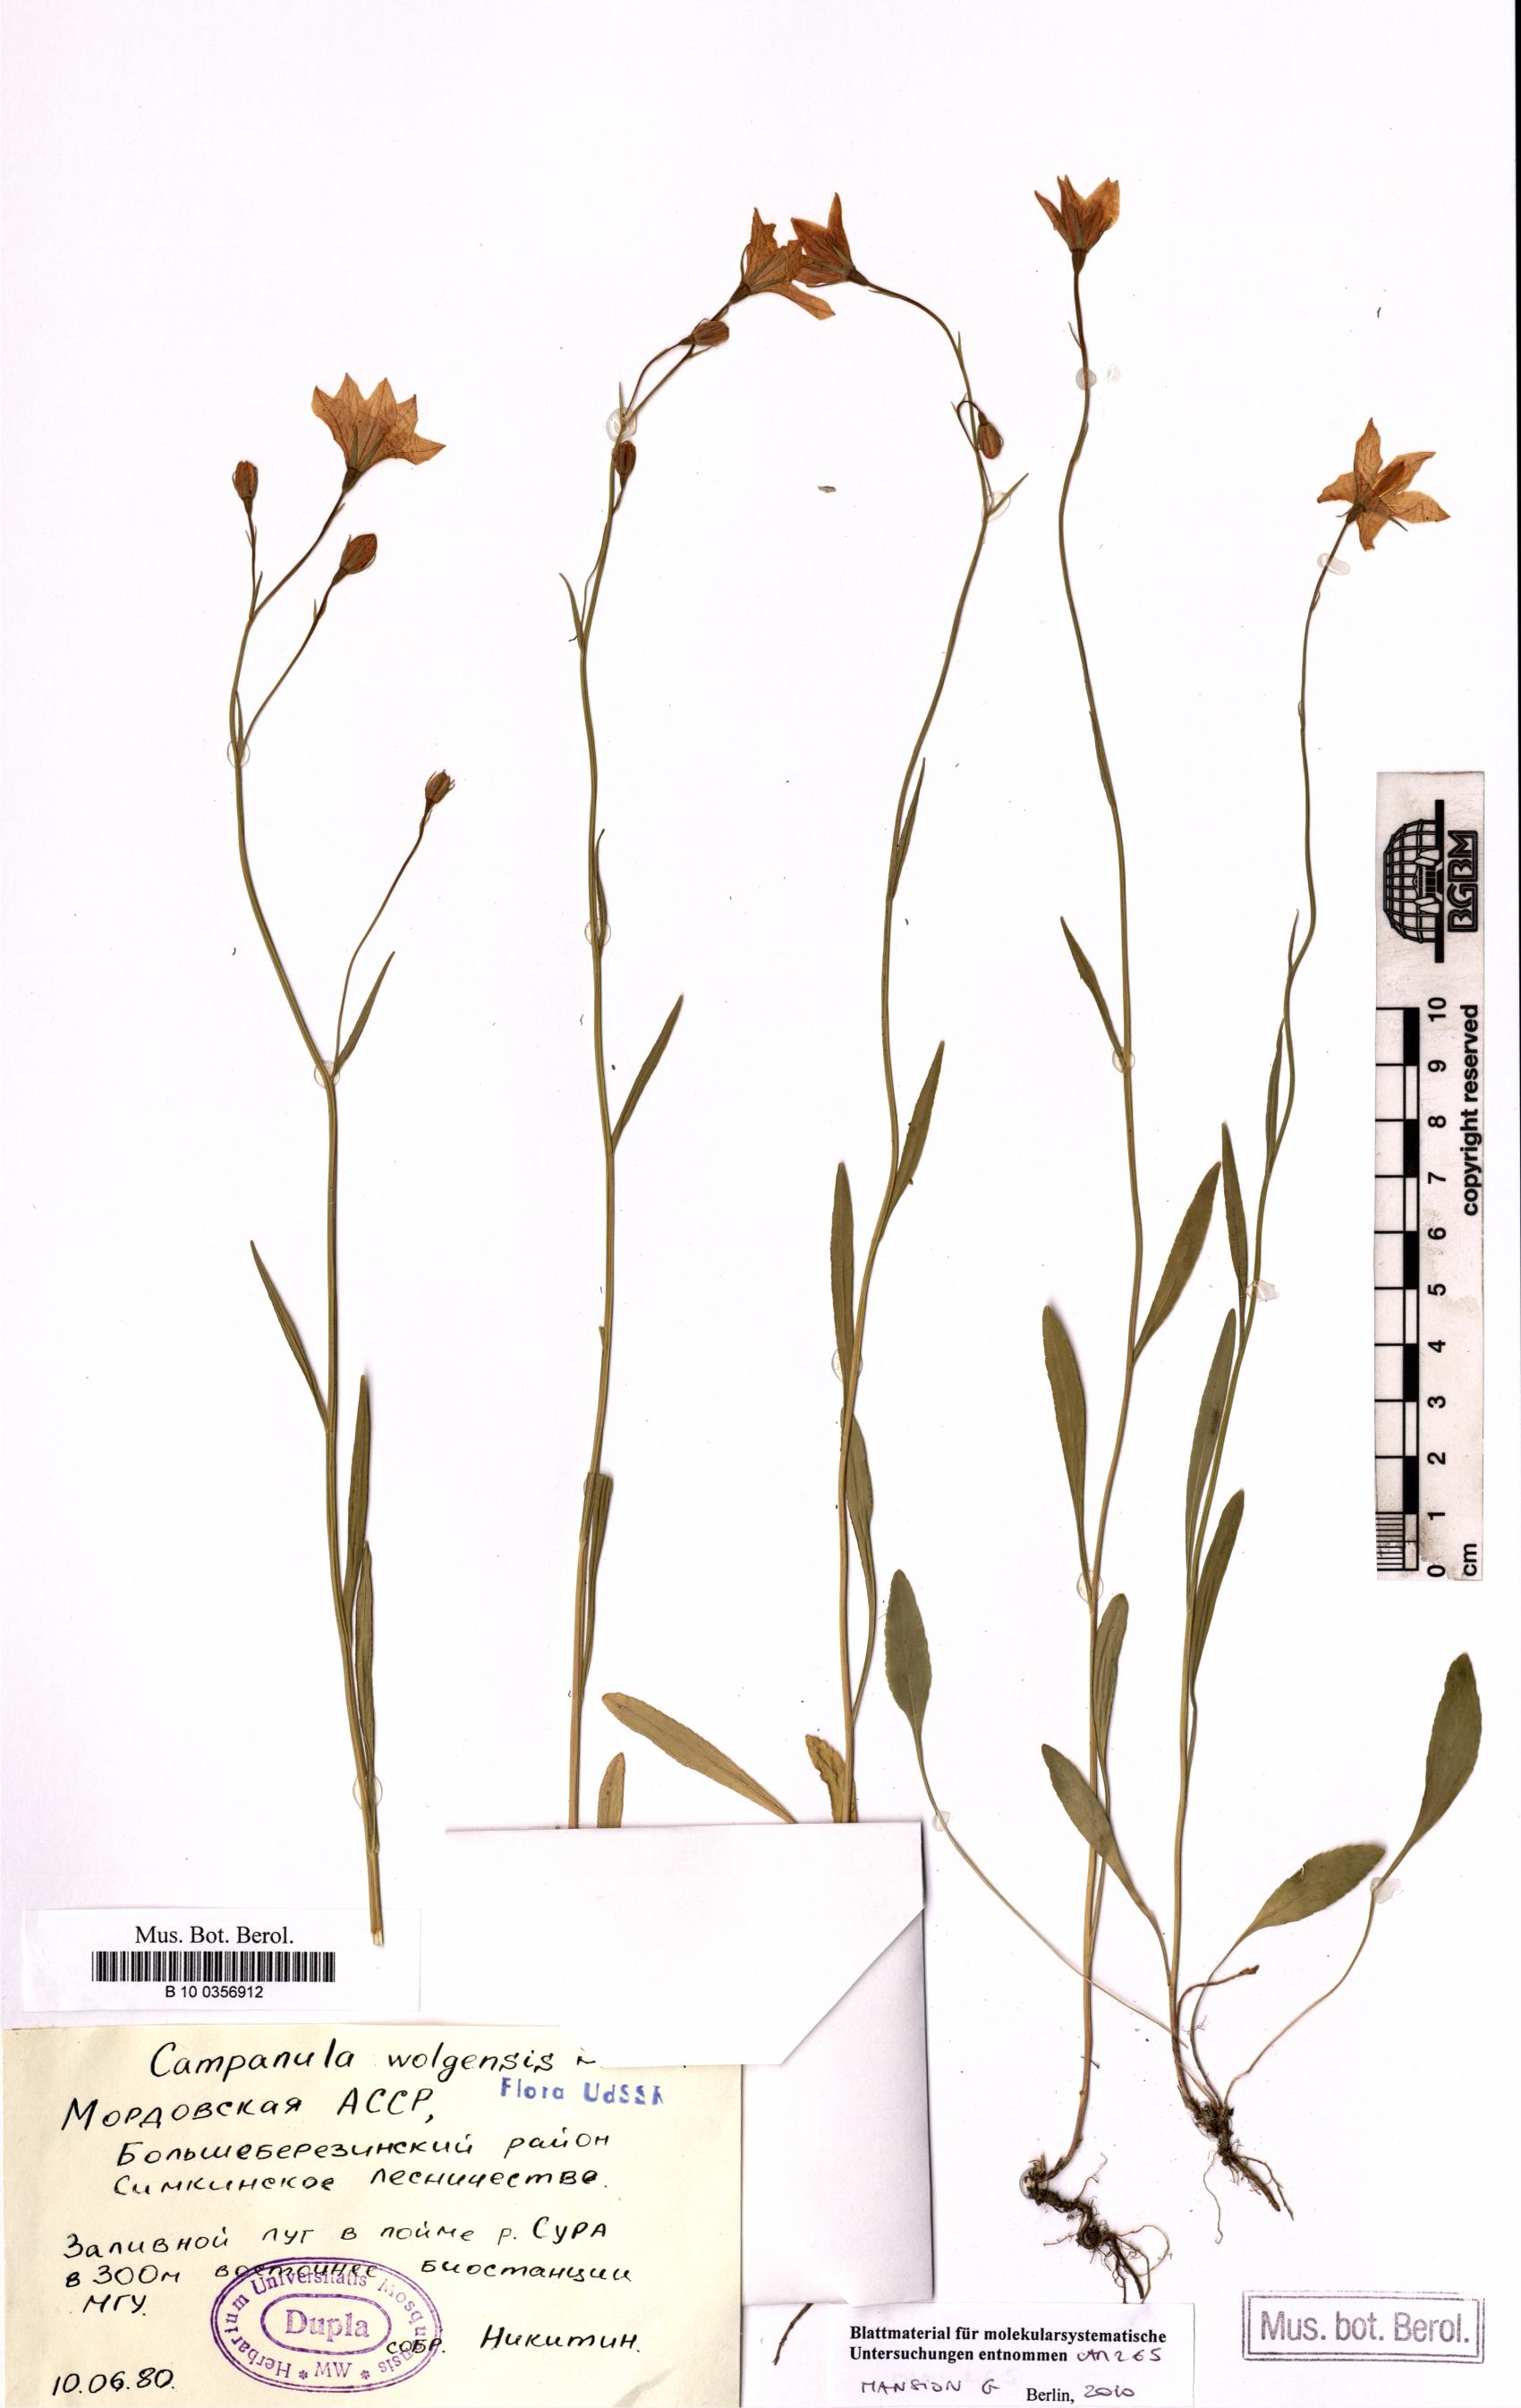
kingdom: Plantae
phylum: Tracheophyta
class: Magnoliopsida
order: Asterales
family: Campanulaceae
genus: Campanula
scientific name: Campanula stevenii
